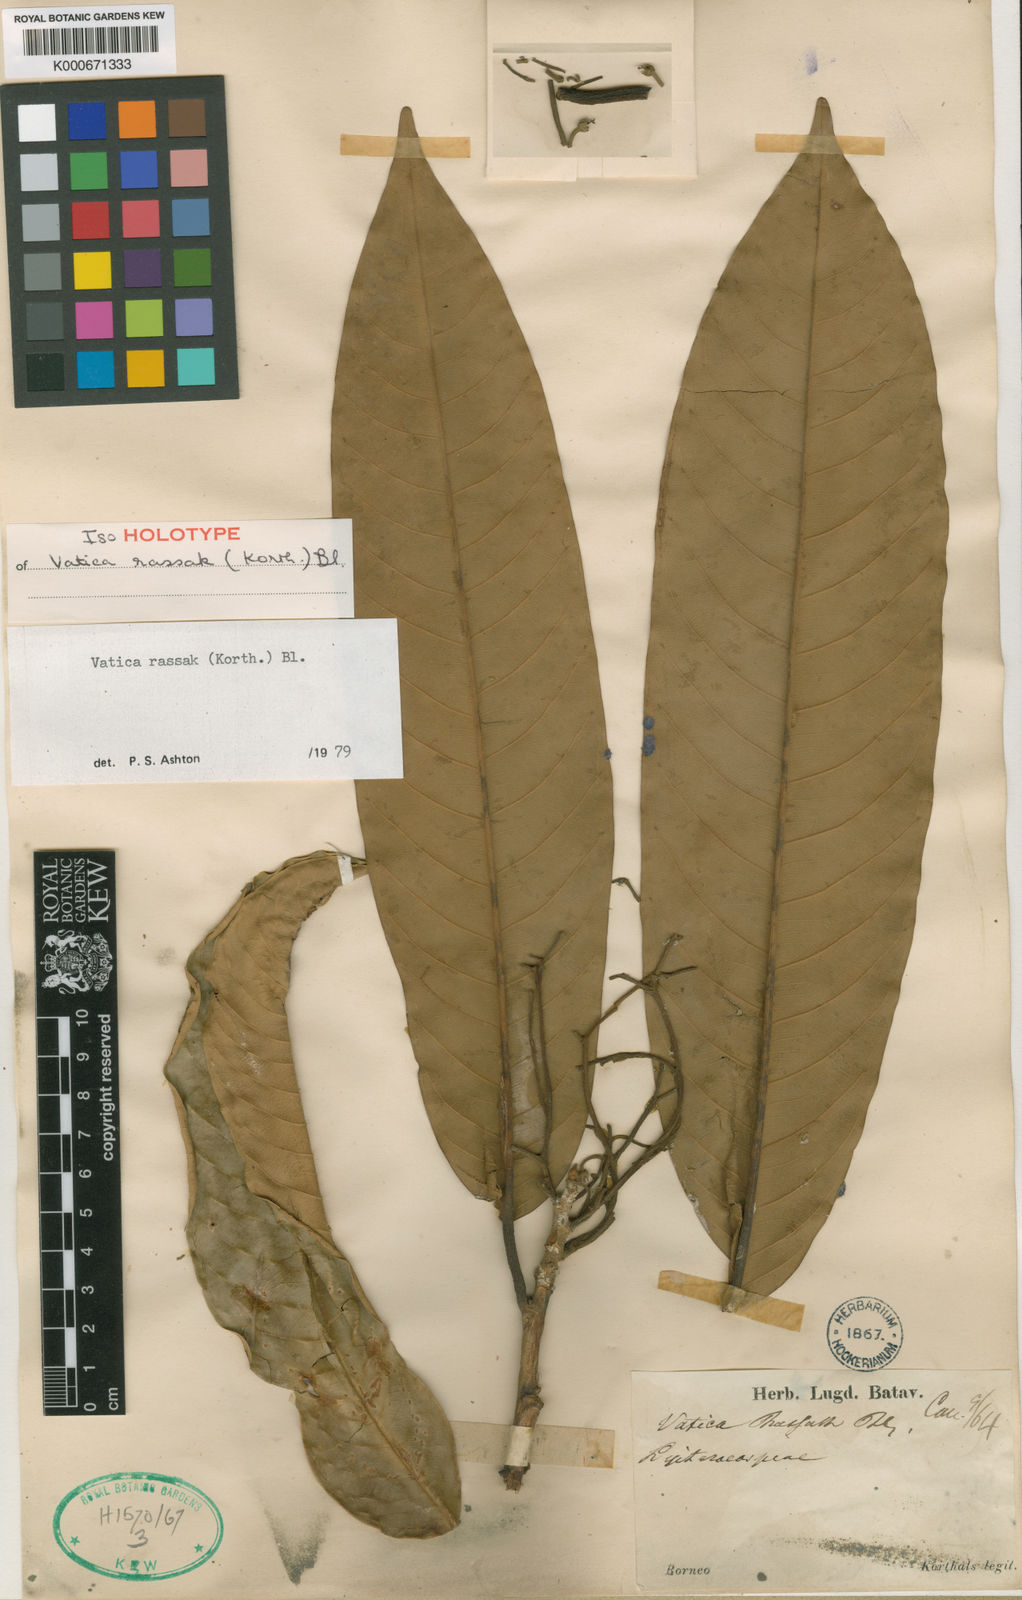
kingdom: Plantae
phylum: Tracheophyta
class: Magnoliopsida
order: Malvales
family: Dipterocarpaceae
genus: Vatica
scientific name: Vatica rassak
